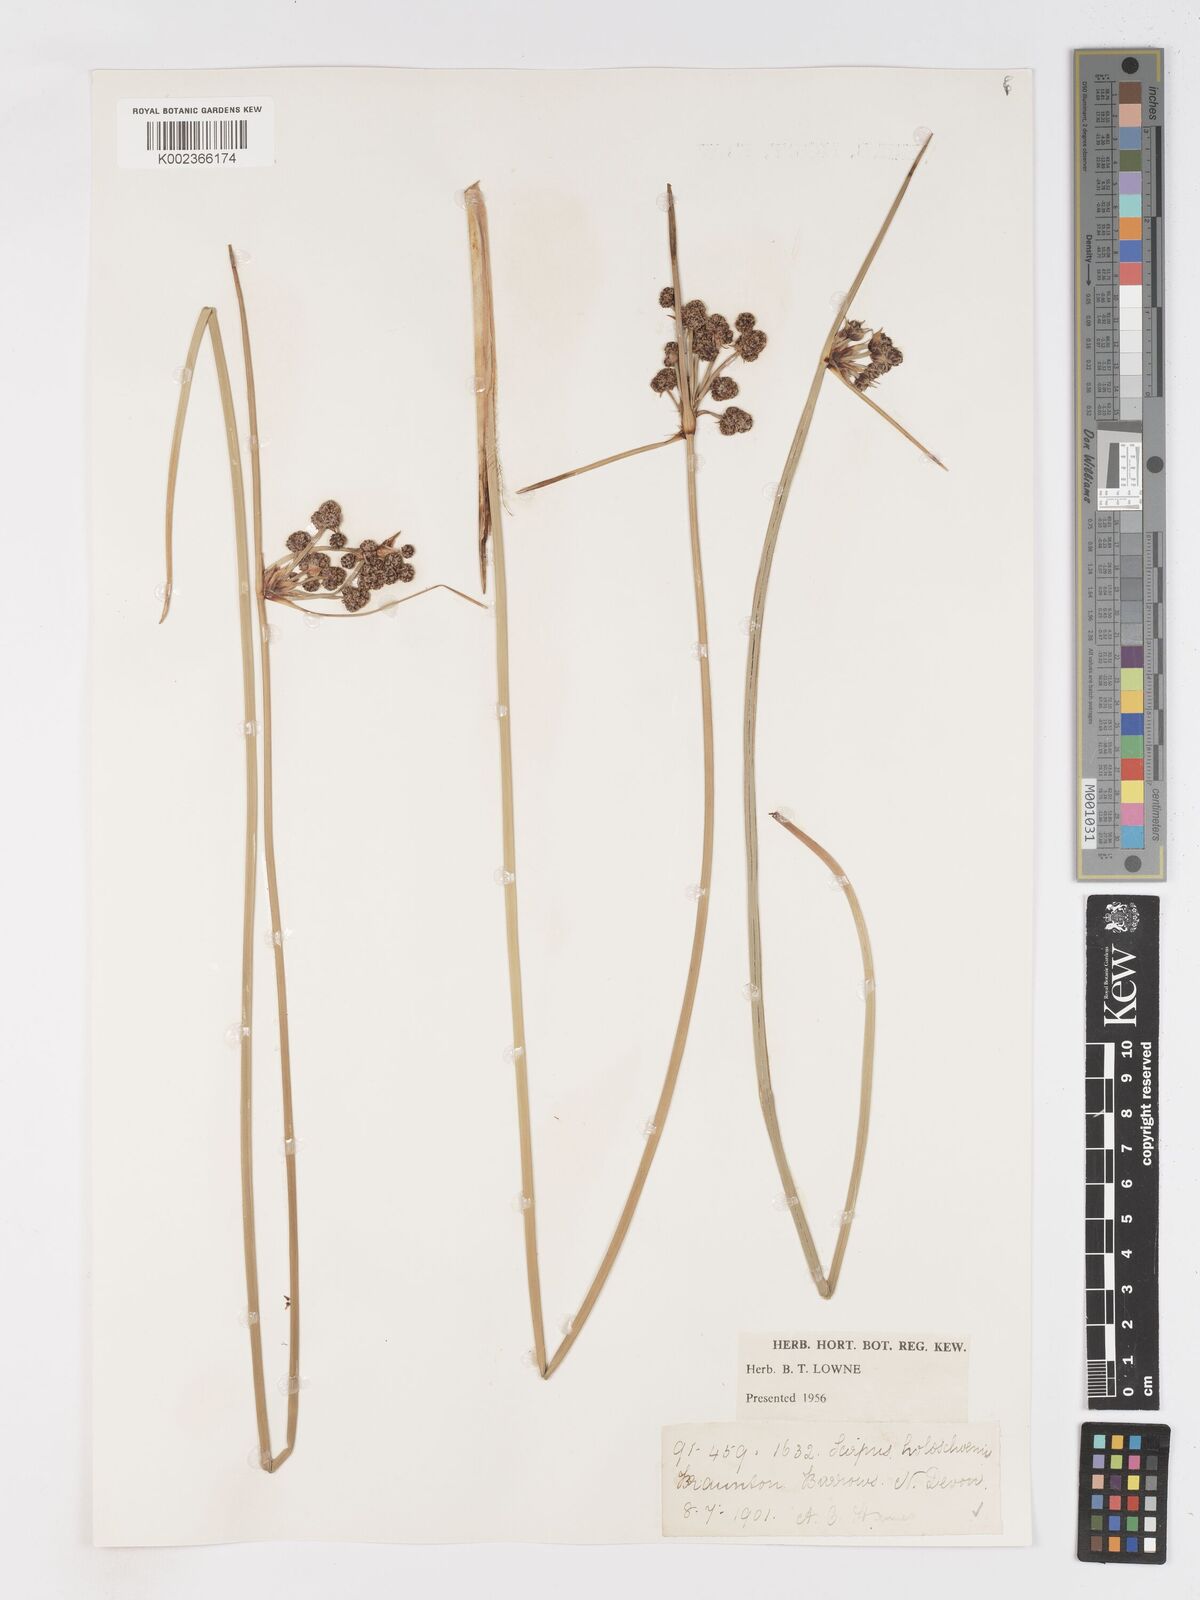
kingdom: Plantae
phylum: Tracheophyta
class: Liliopsida
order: Poales
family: Cyperaceae
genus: Scirpoides
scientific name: Scirpoides holoschoenus
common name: Round-headed club-rush
